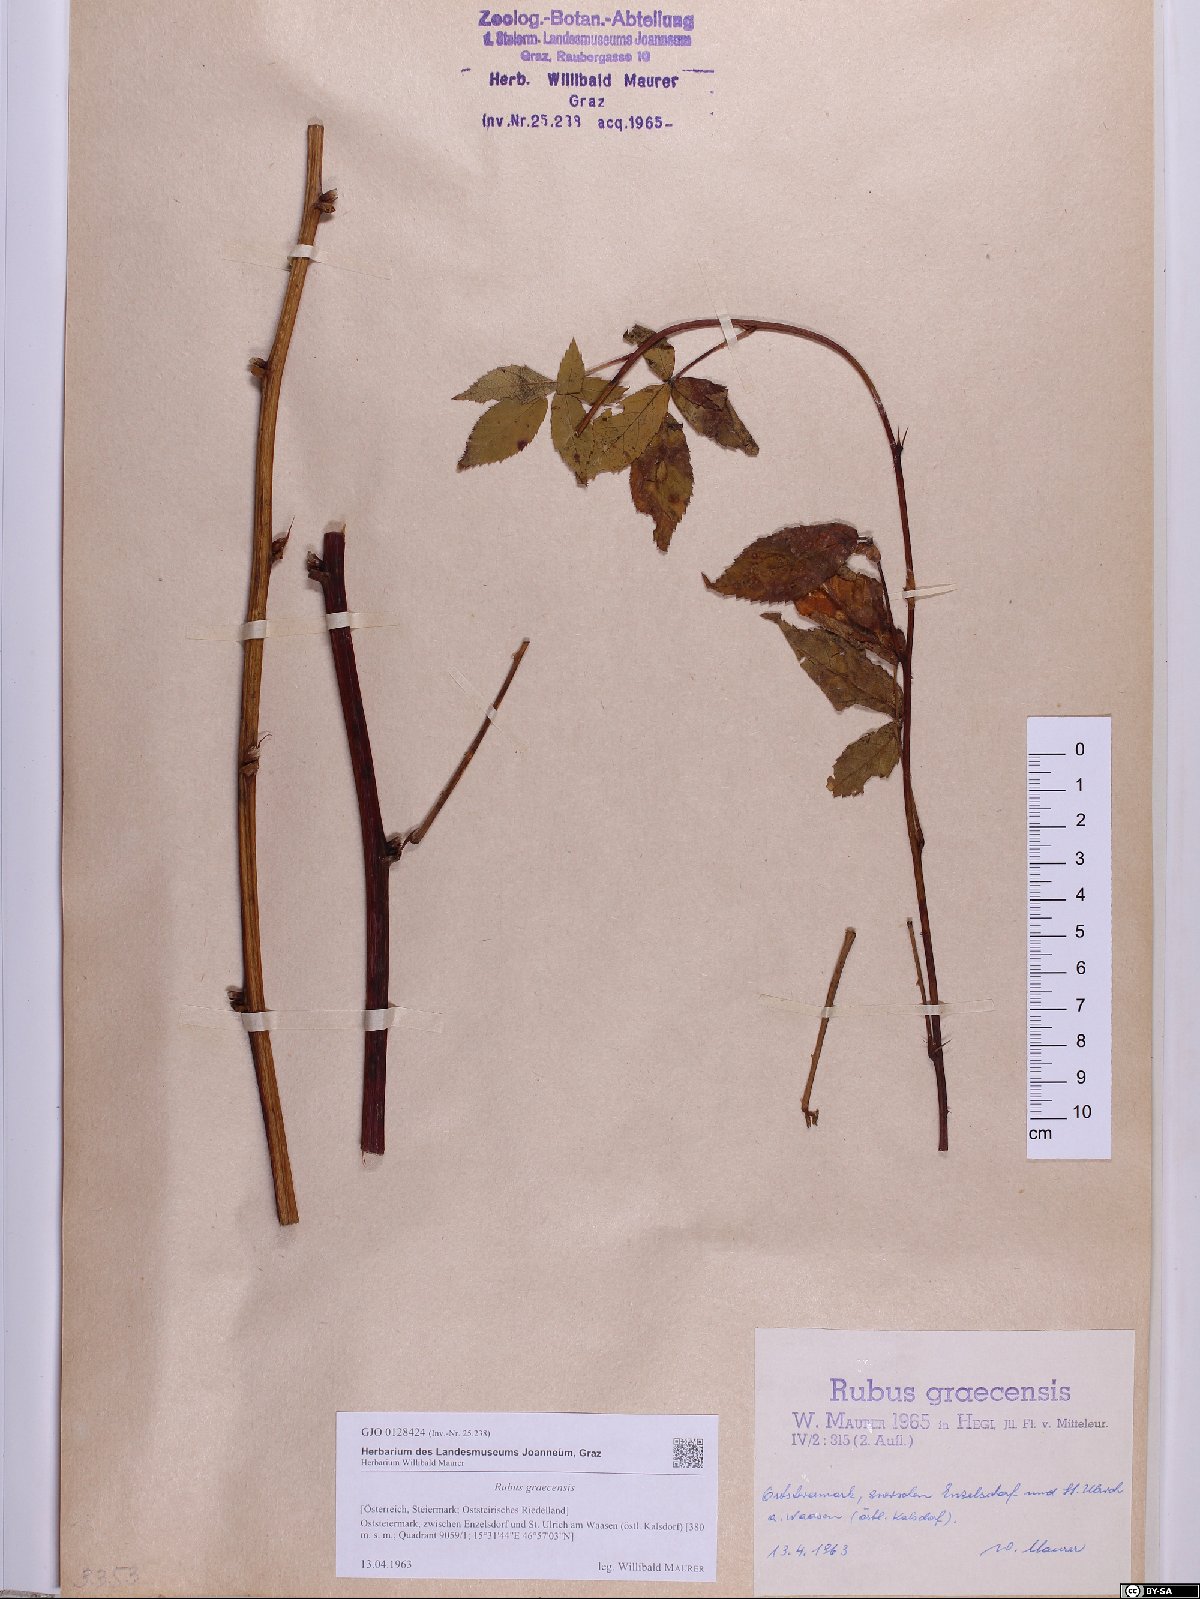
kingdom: Plantae
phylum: Tracheophyta
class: Magnoliopsida
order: Rosales
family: Rosaceae
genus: Rubus
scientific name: Rubus graecensis
